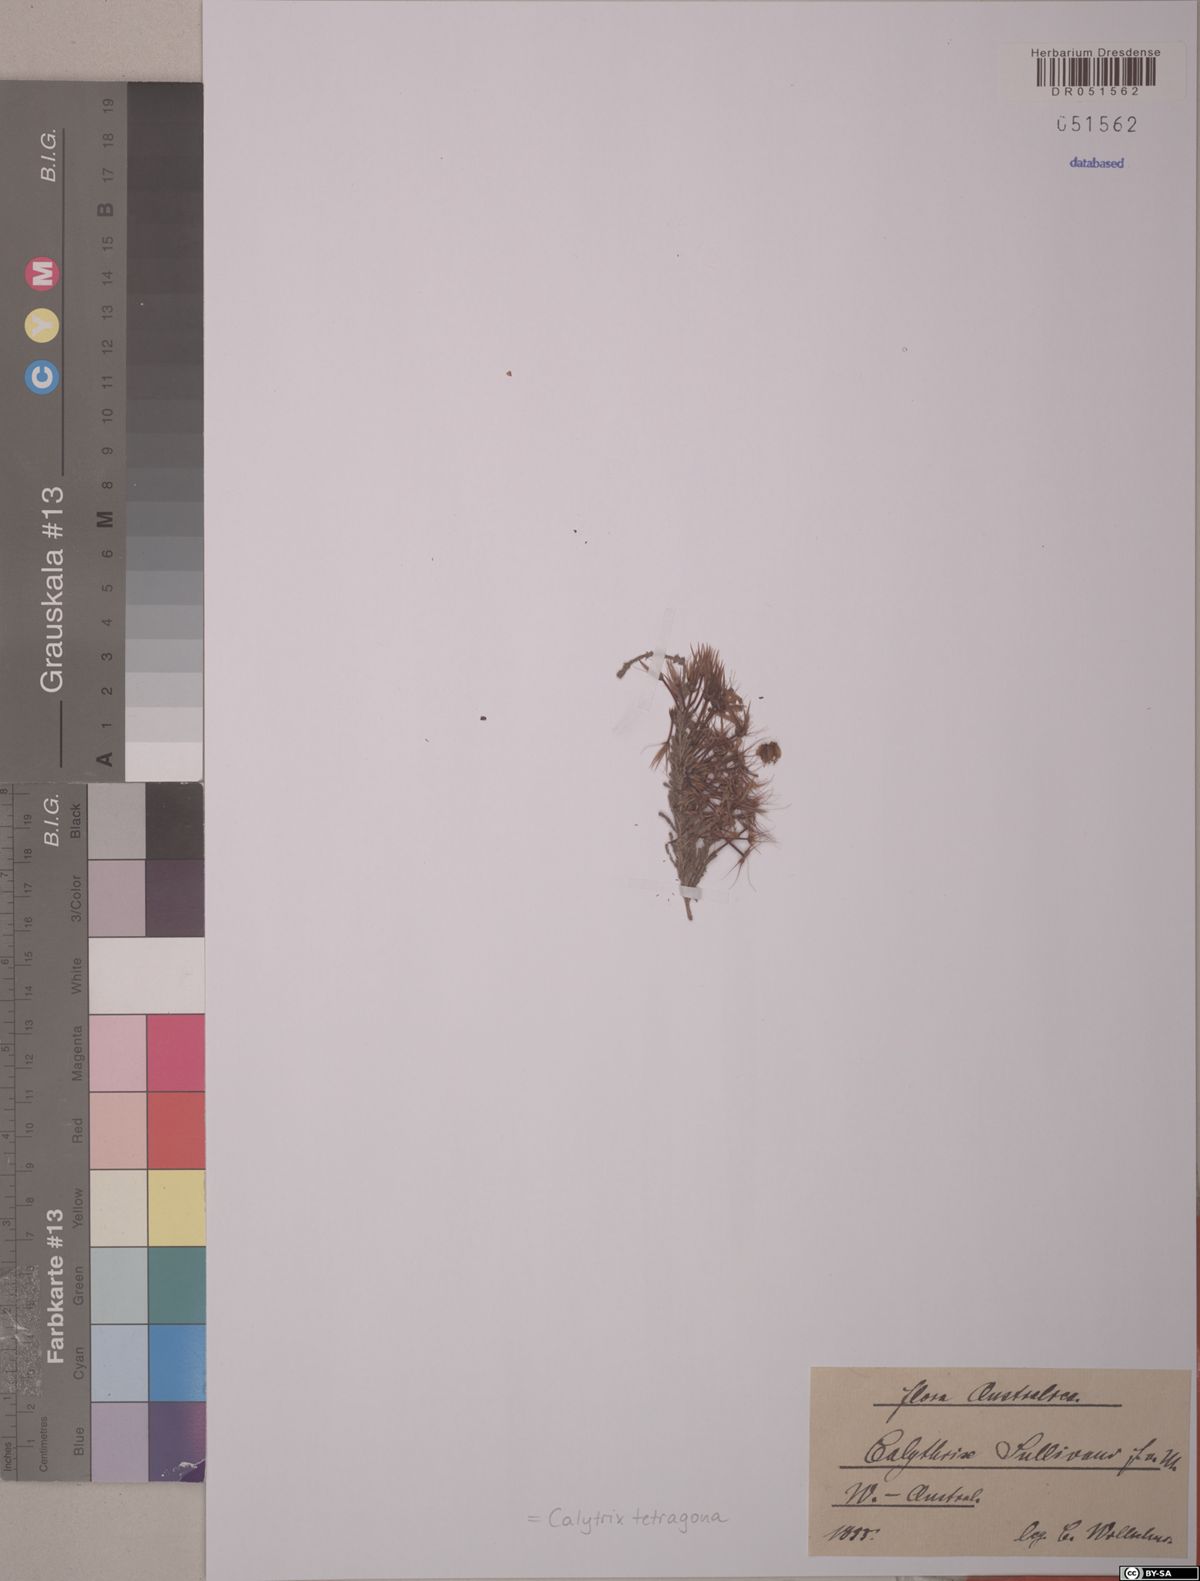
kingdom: Plantae
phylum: Tracheophyta
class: Magnoliopsida
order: Myrtales
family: Myrtaceae
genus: Calytrix
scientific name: Calytrix tetragona
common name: Common fringe myrtle
